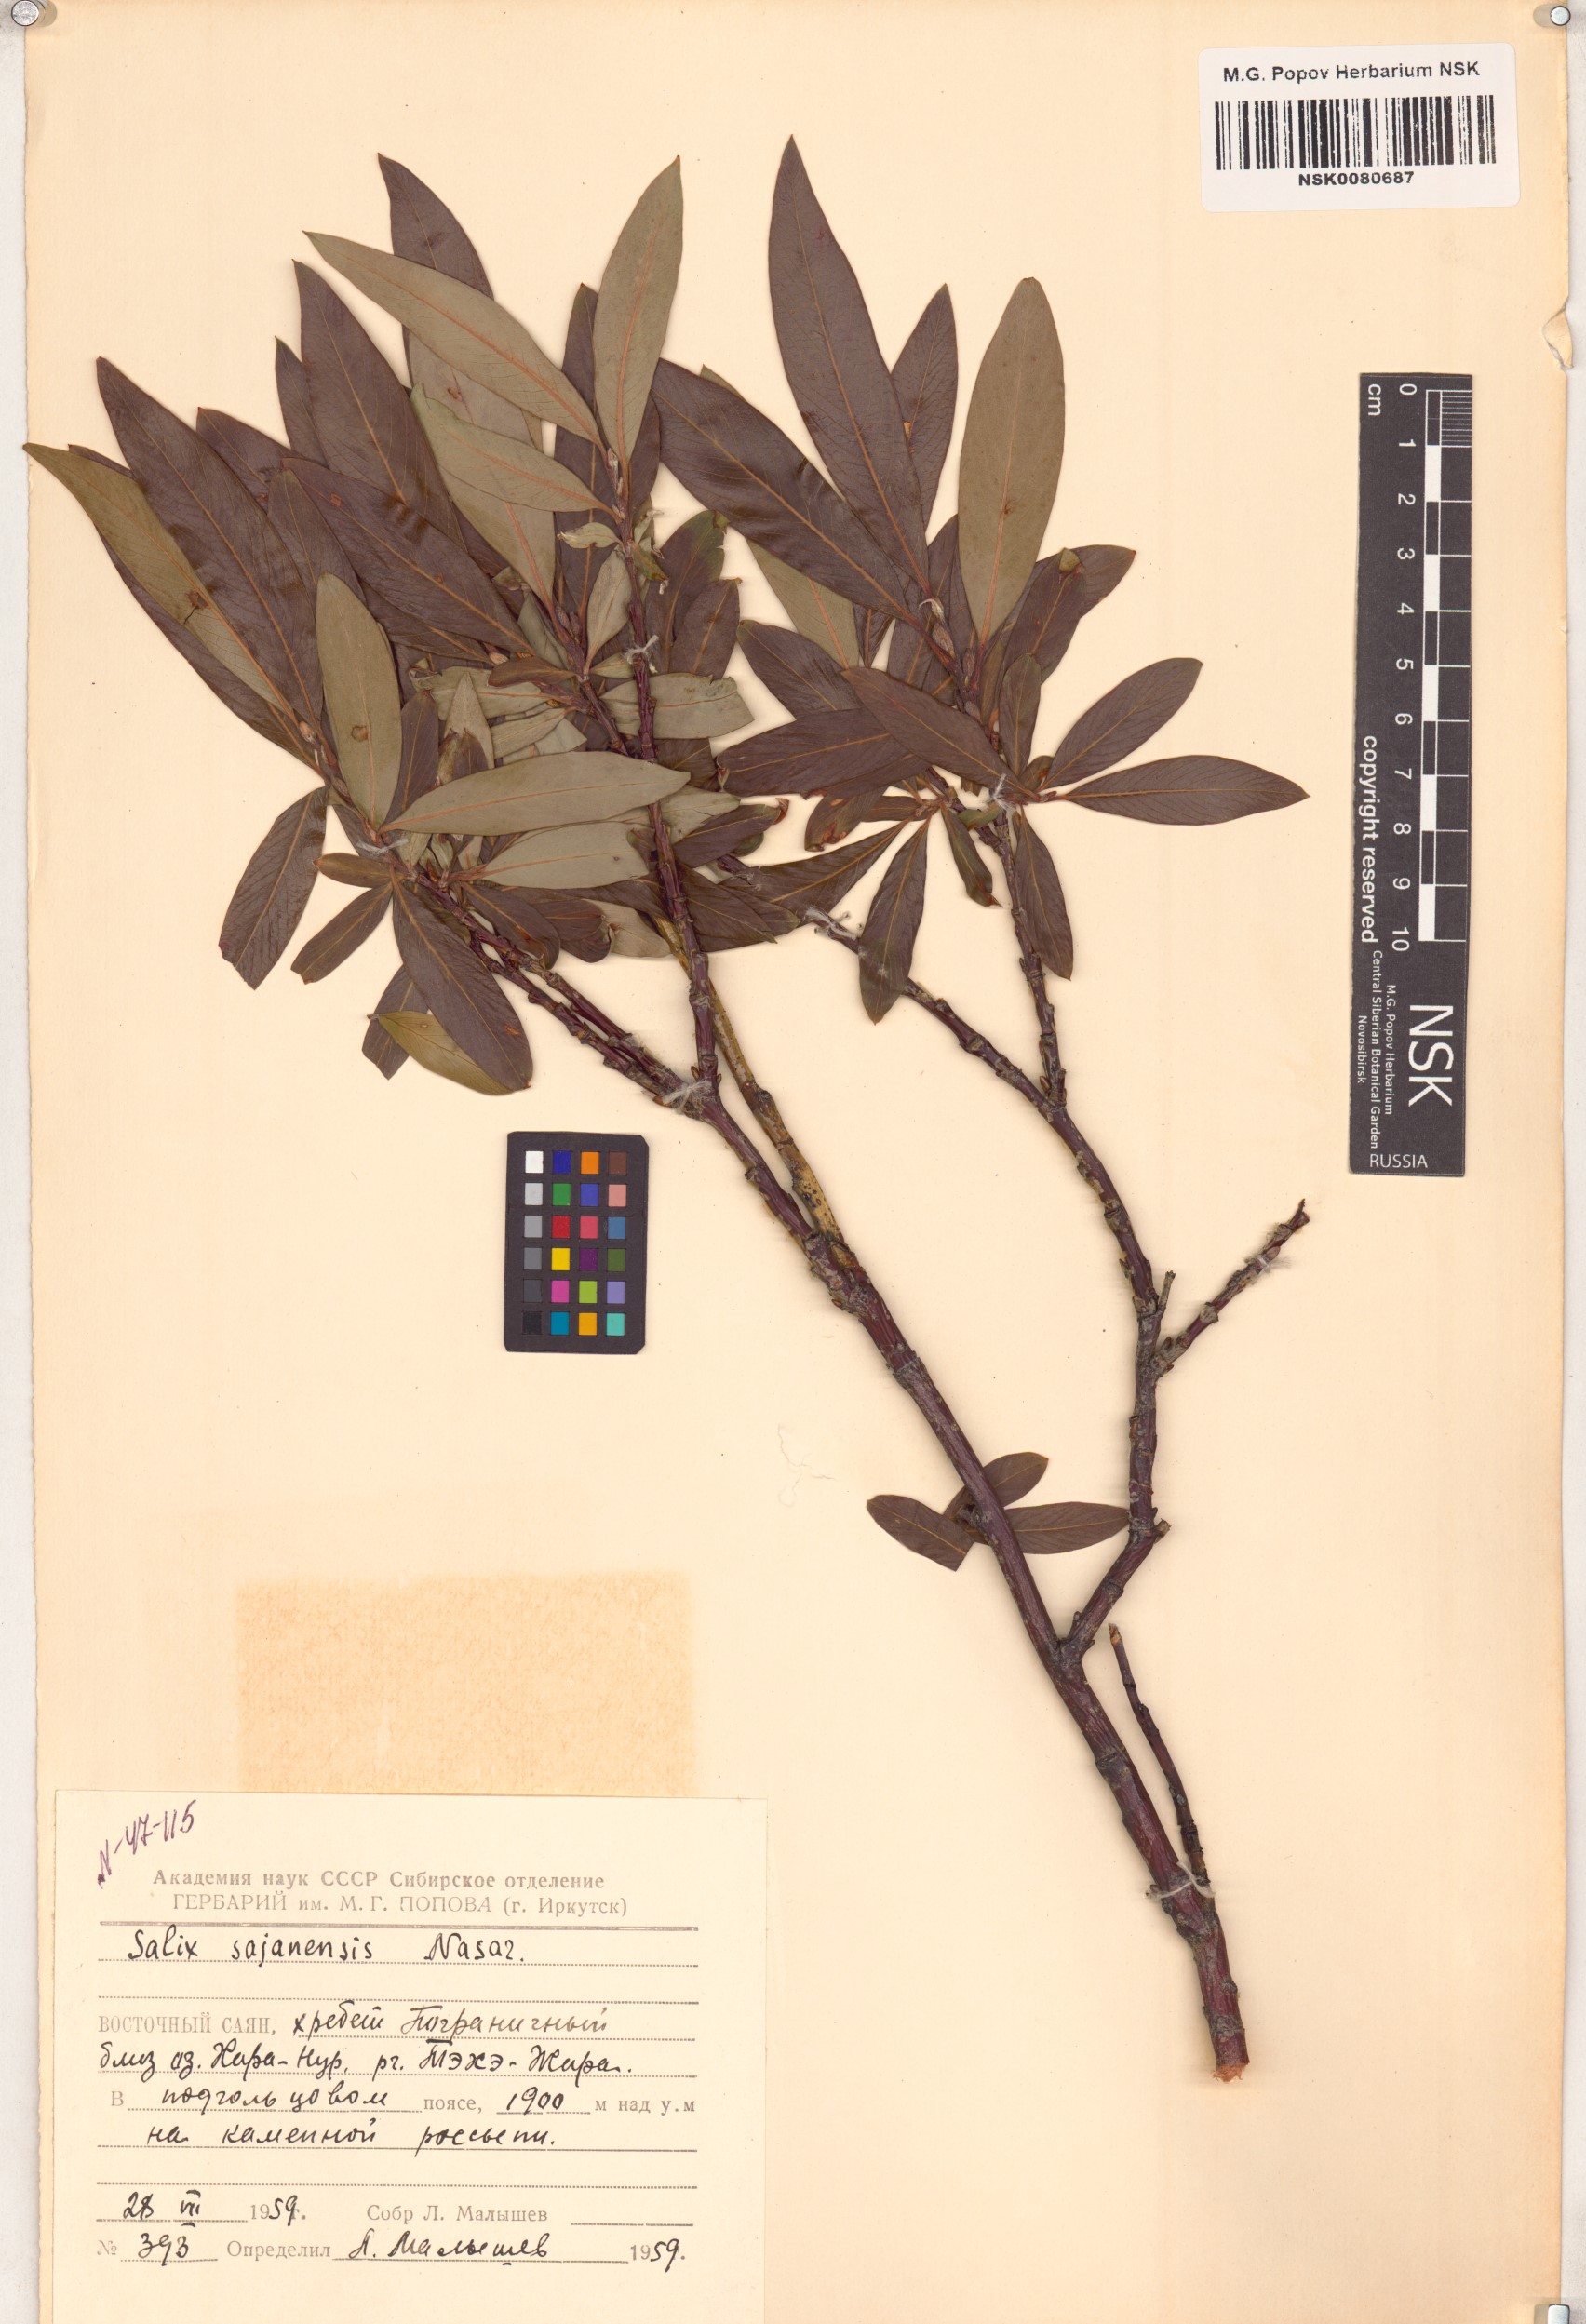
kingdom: Plantae
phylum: Tracheophyta
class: Magnoliopsida
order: Malpighiales
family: Salicaceae
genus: Salix
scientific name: Salix sajanensis
